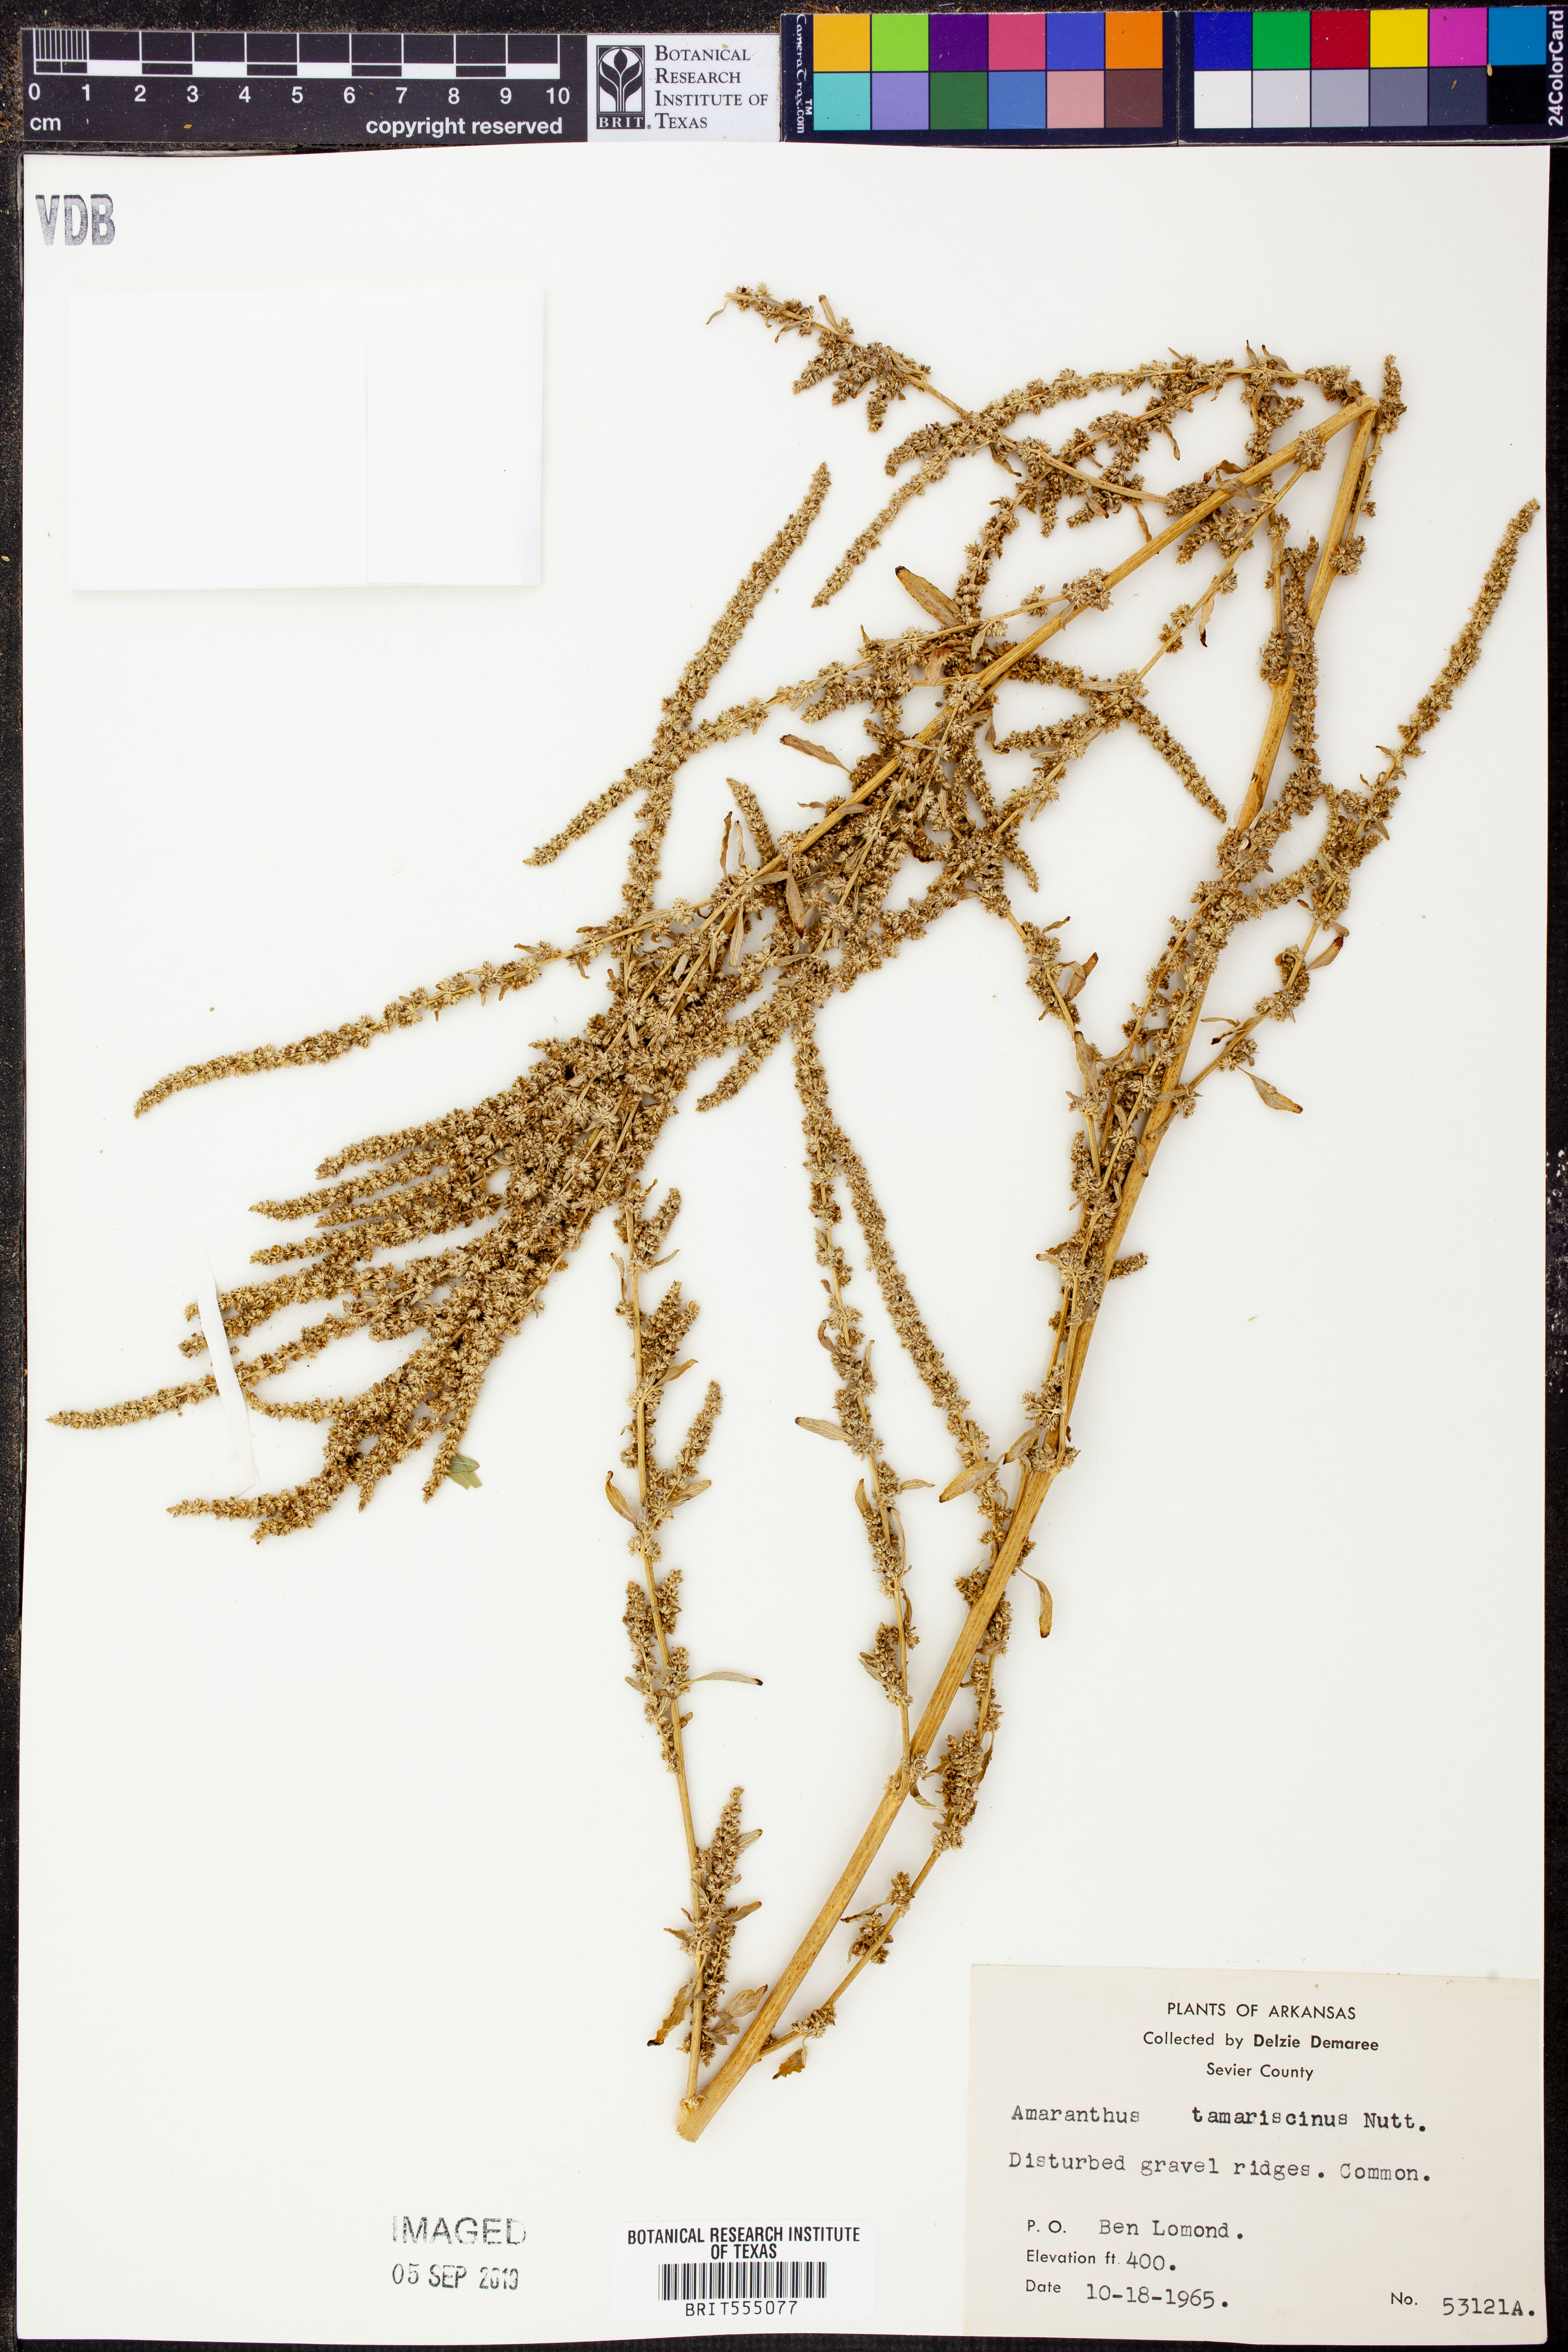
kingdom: Plantae
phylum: Tracheophyta
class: Magnoliopsida
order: Caryophyllales
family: Amaranthaceae
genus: Amaranthus
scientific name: Amaranthus tuberculatus
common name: Rough-fruit amaranth
